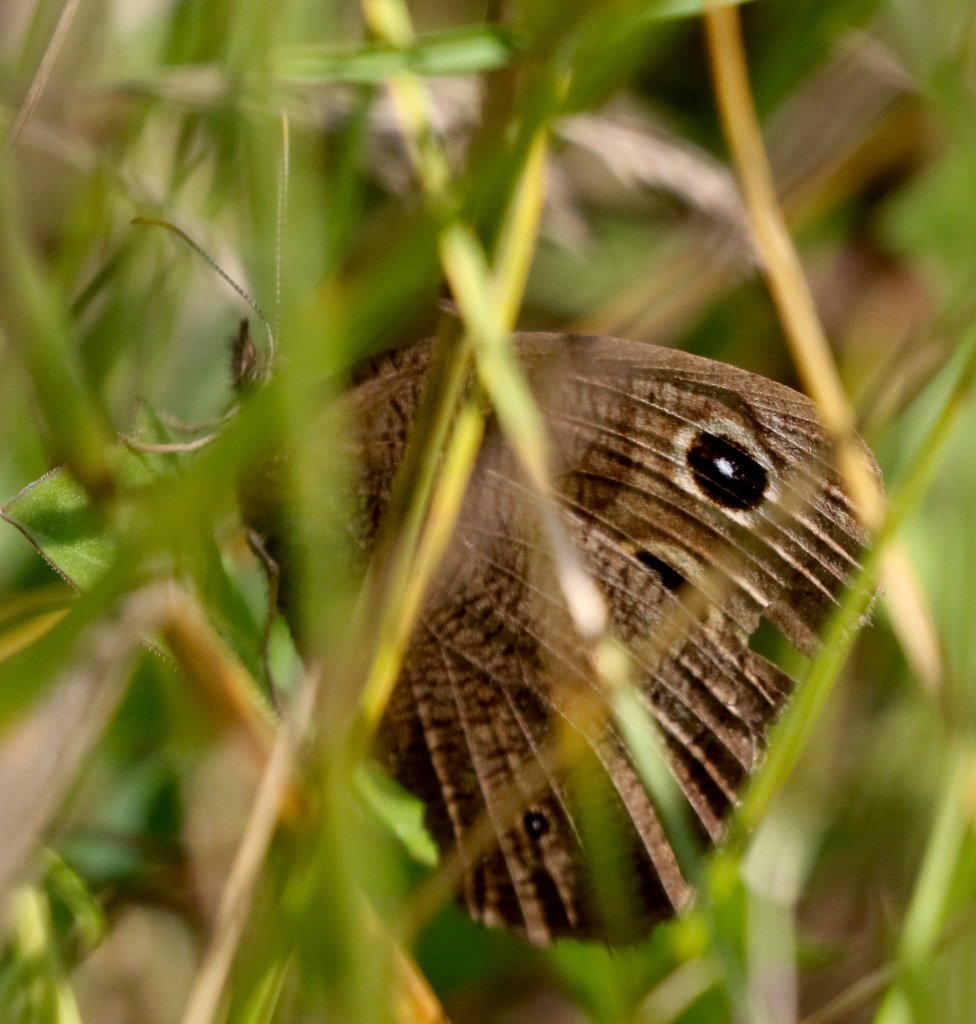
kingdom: Animalia
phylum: Arthropoda
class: Insecta
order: Lepidoptera
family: Nymphalidae
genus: Cercyonis
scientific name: Cercyonis pegala
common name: Common Wood-Nymph
